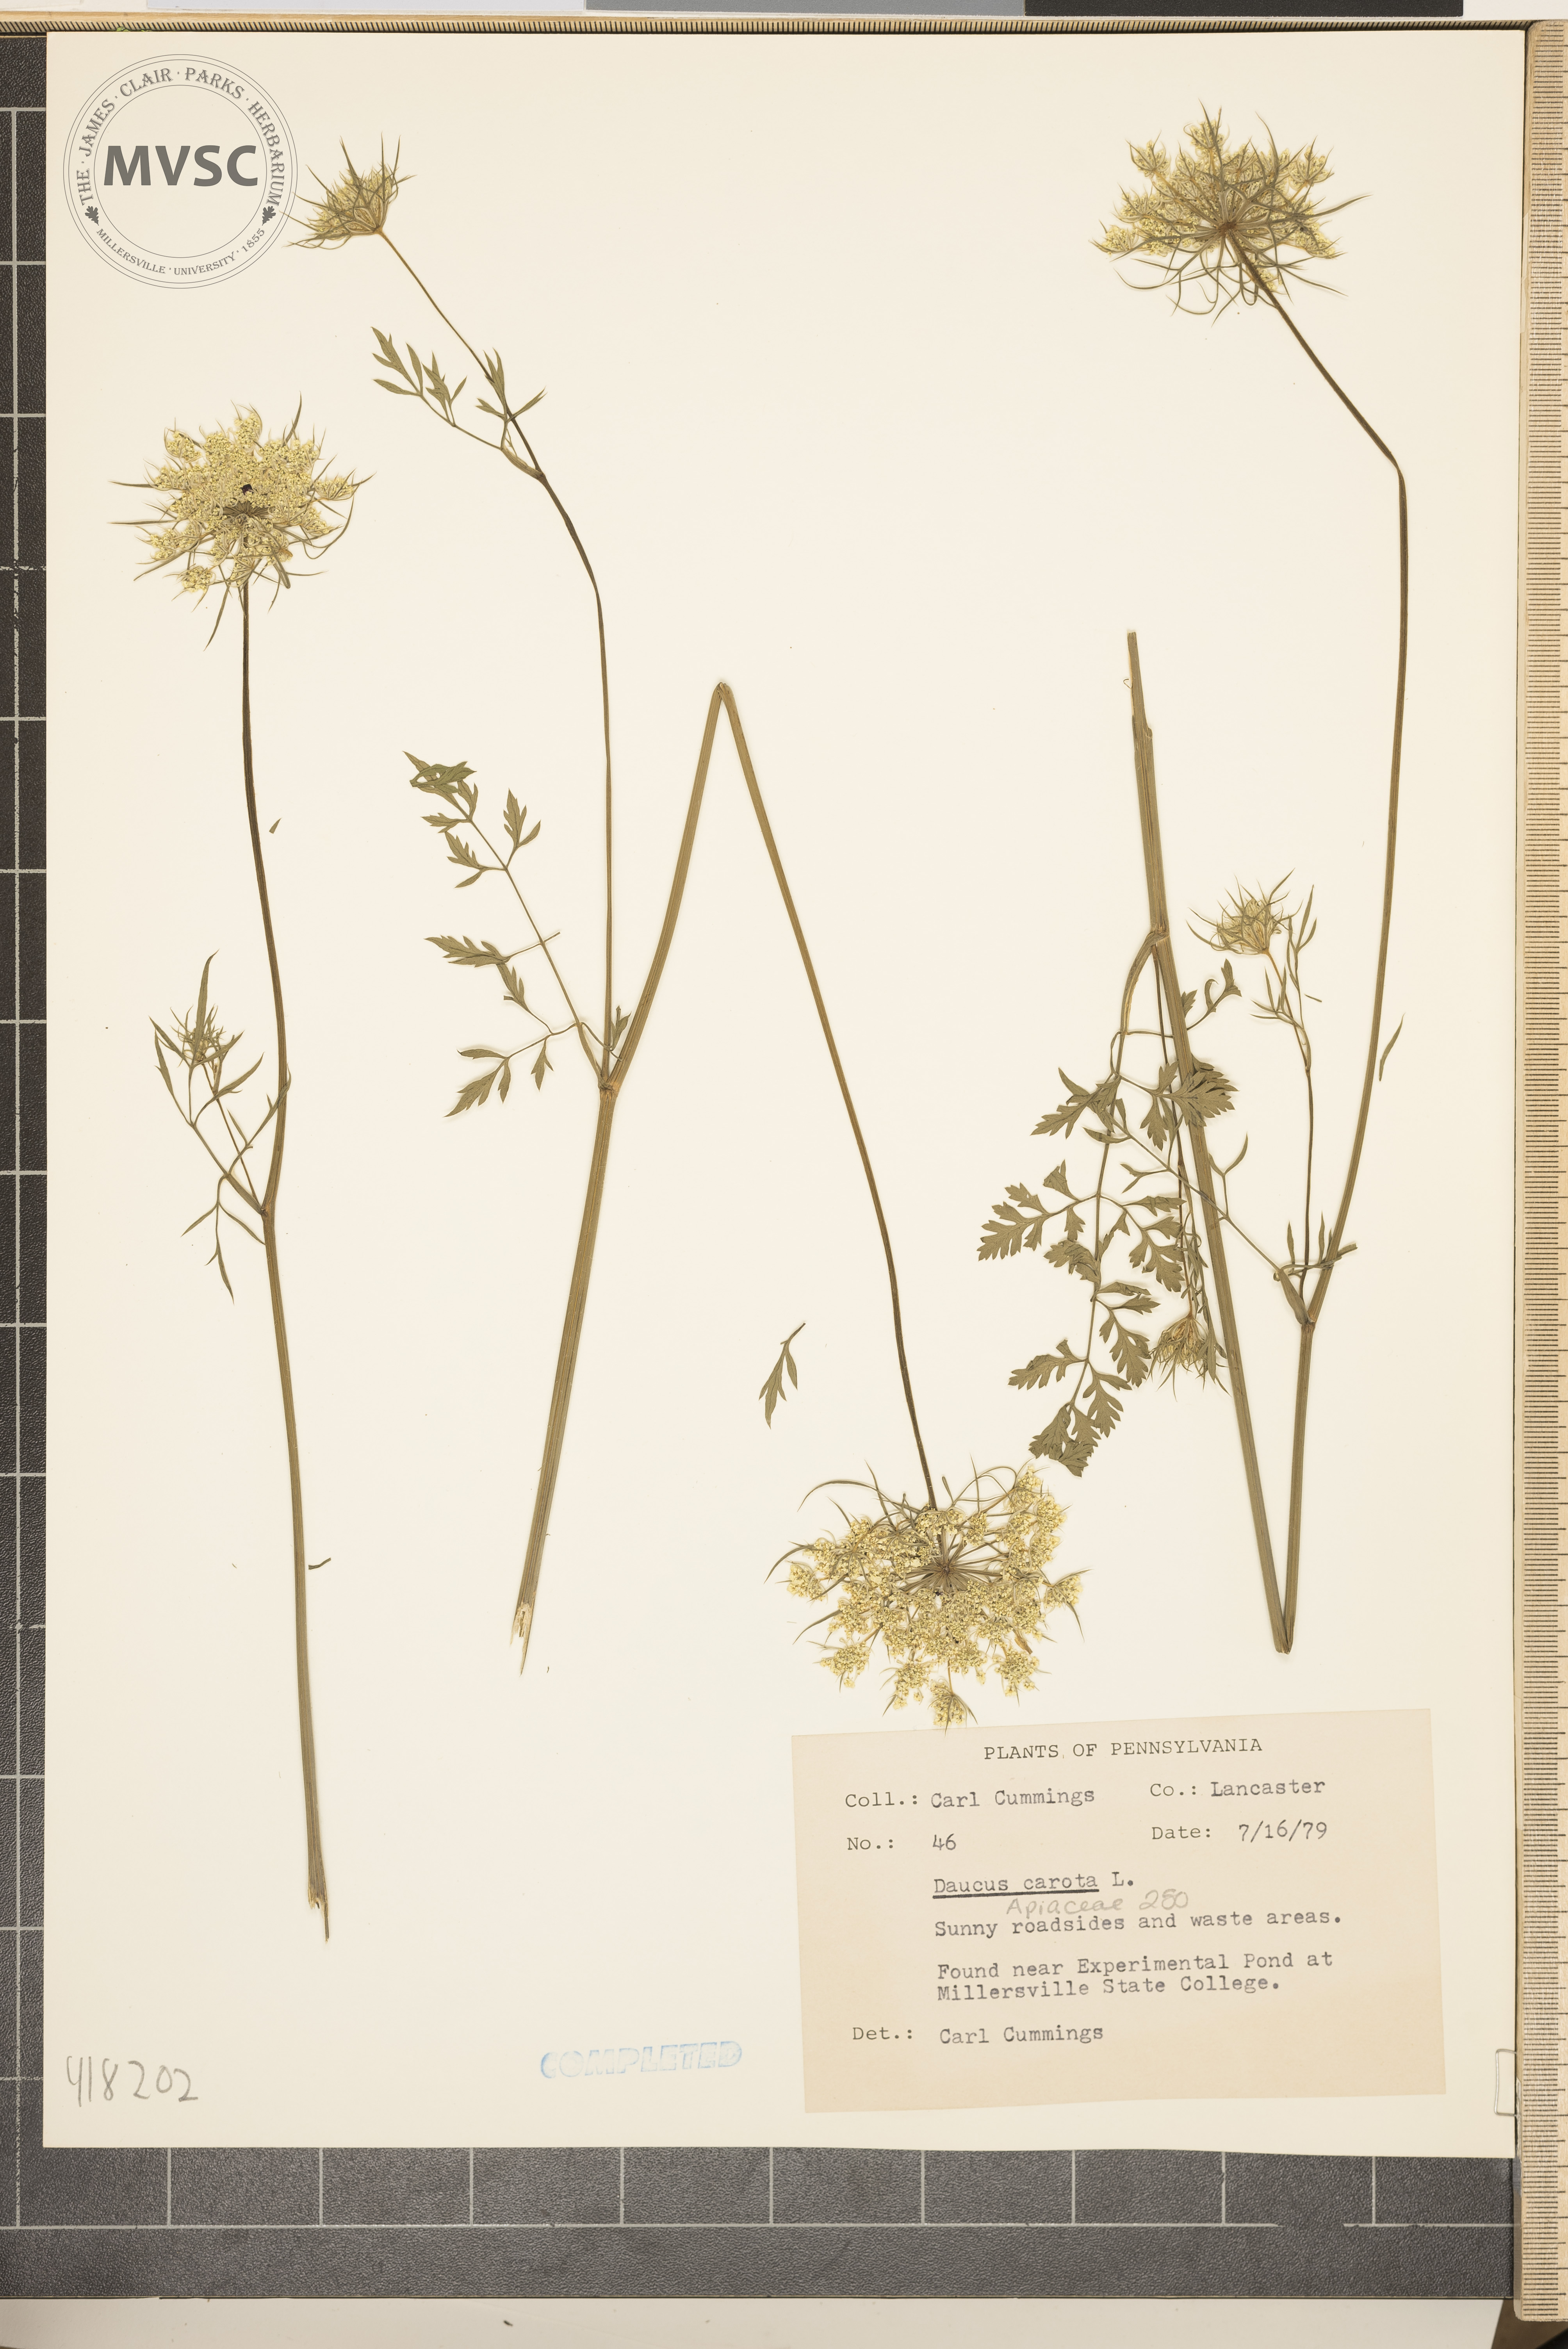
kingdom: Plantae
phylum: Tracheophyta
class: Magnoliopsida
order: Apiales
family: Apiaceae
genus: Daucus
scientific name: Daucus carota
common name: Wild carrot
